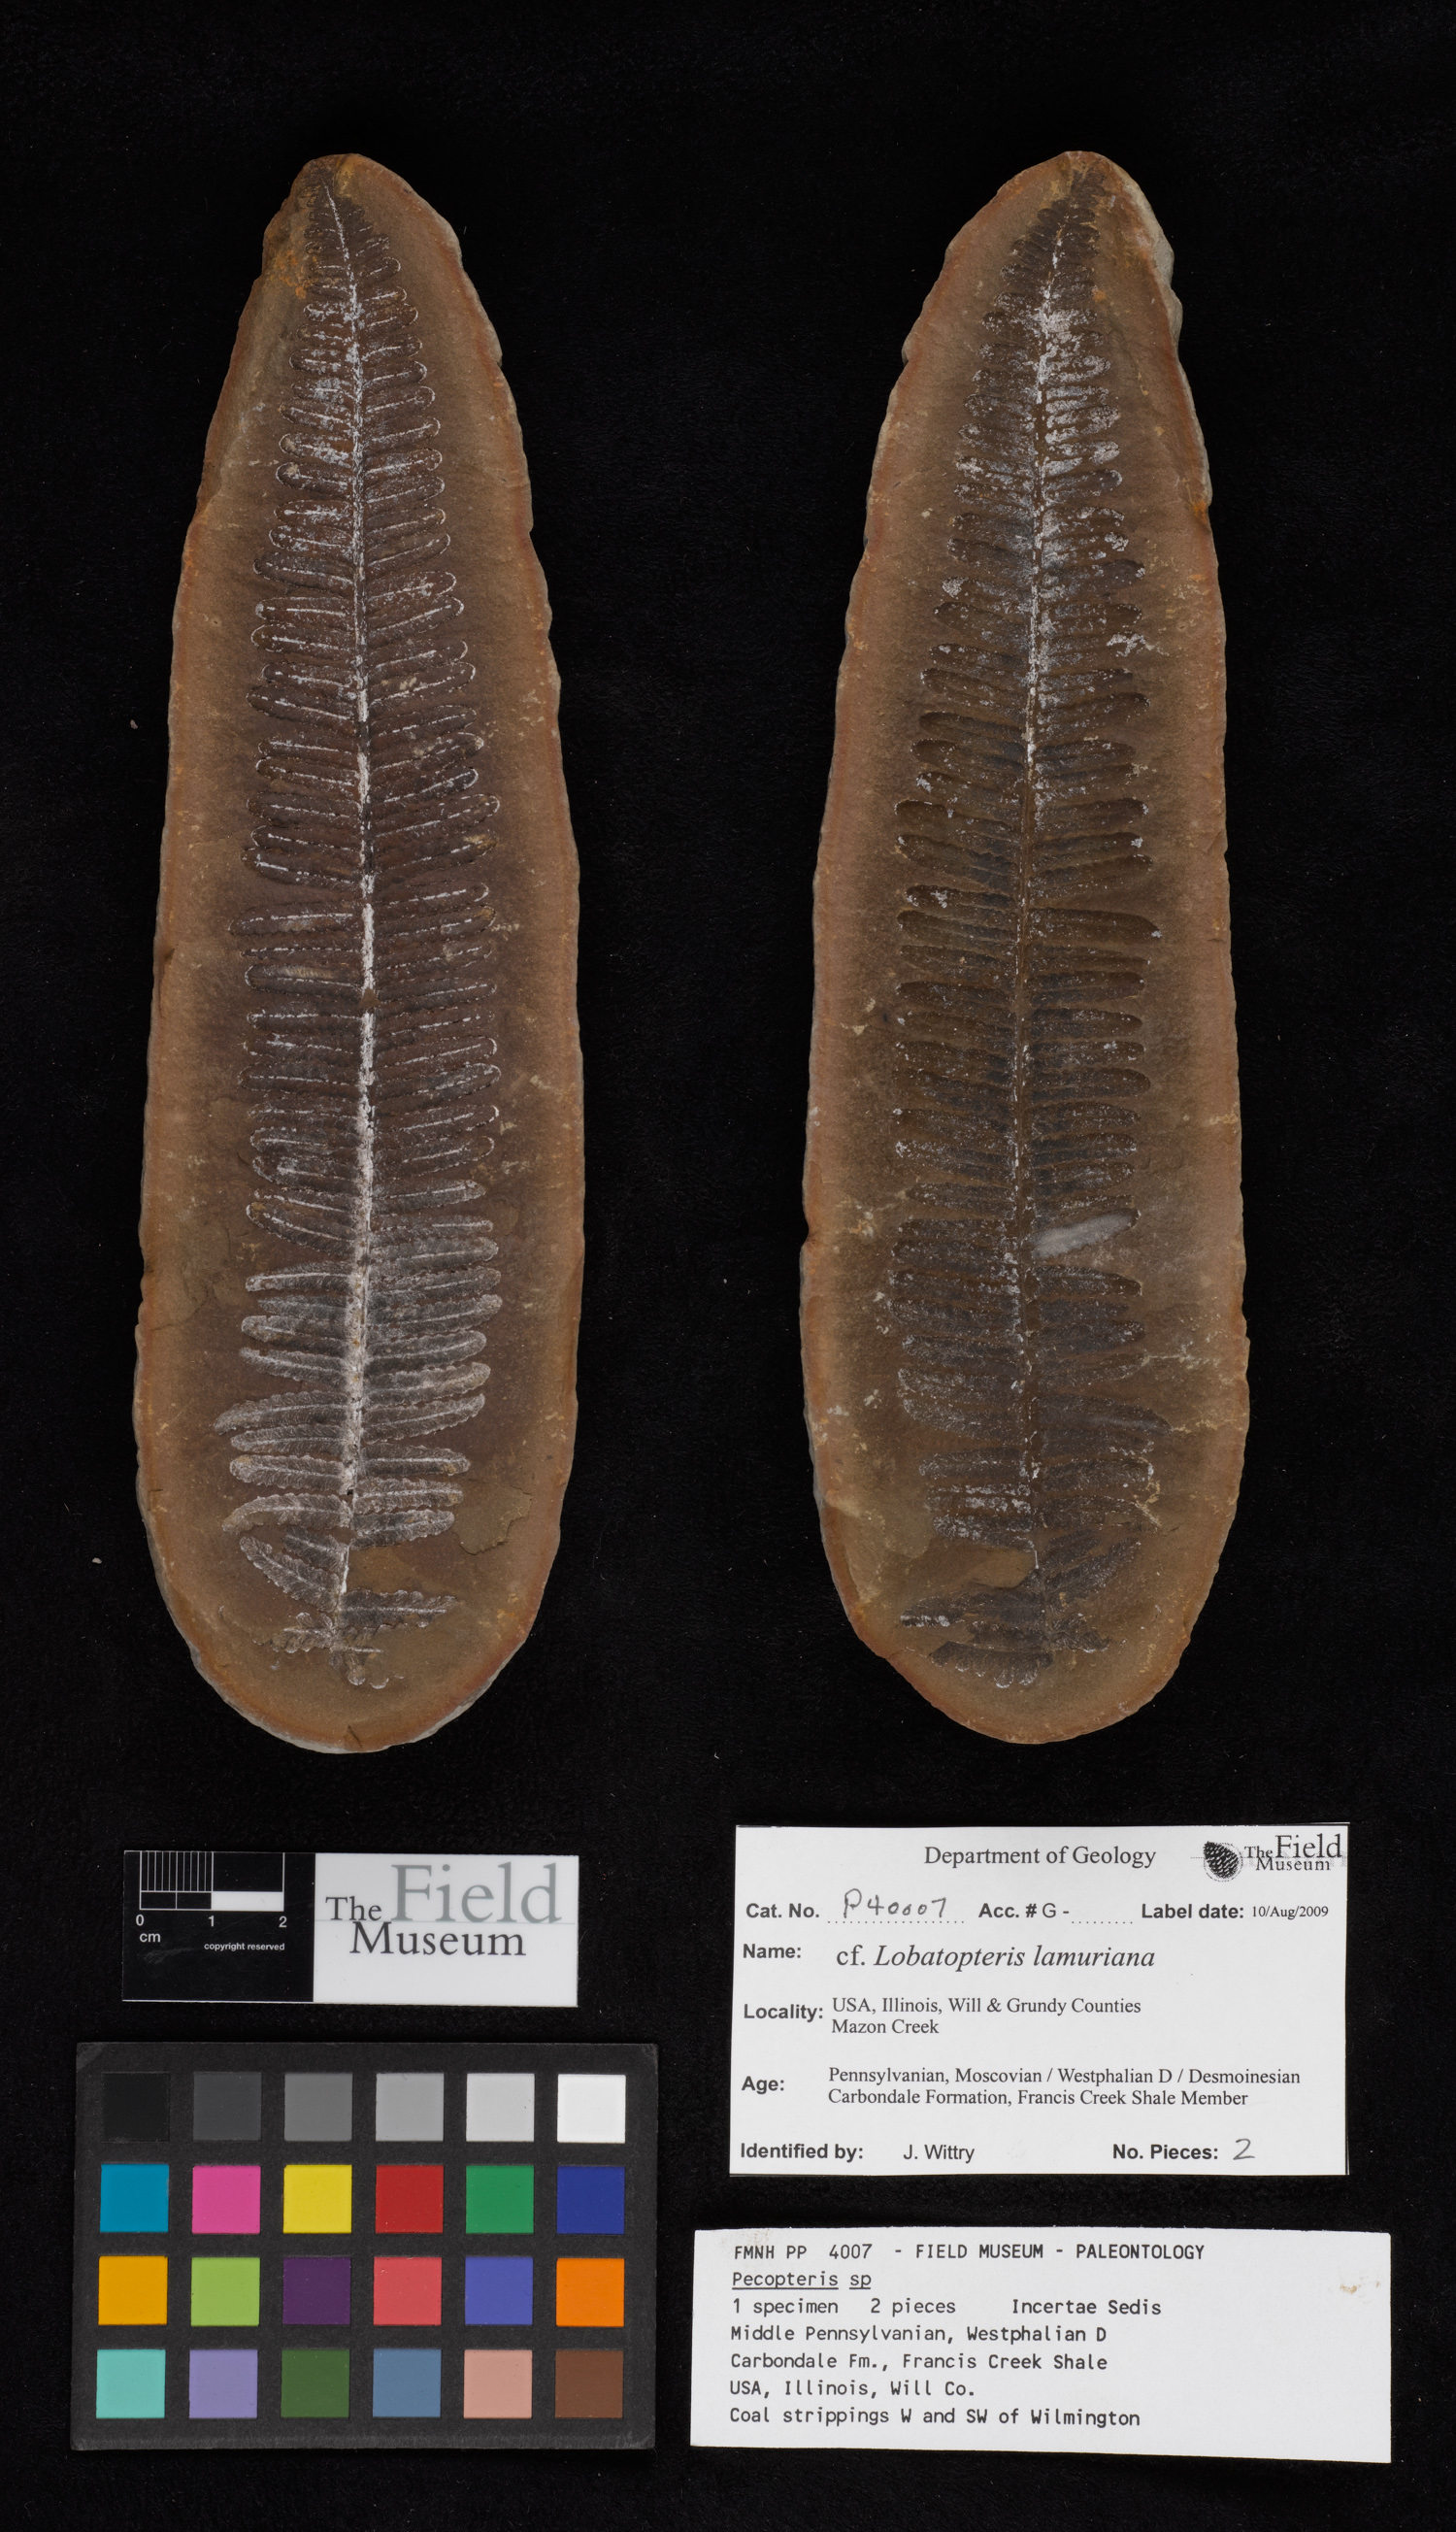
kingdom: Plantae
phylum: Tracheophyta
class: Polypodiopsida
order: Marattiales
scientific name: Marattiales
